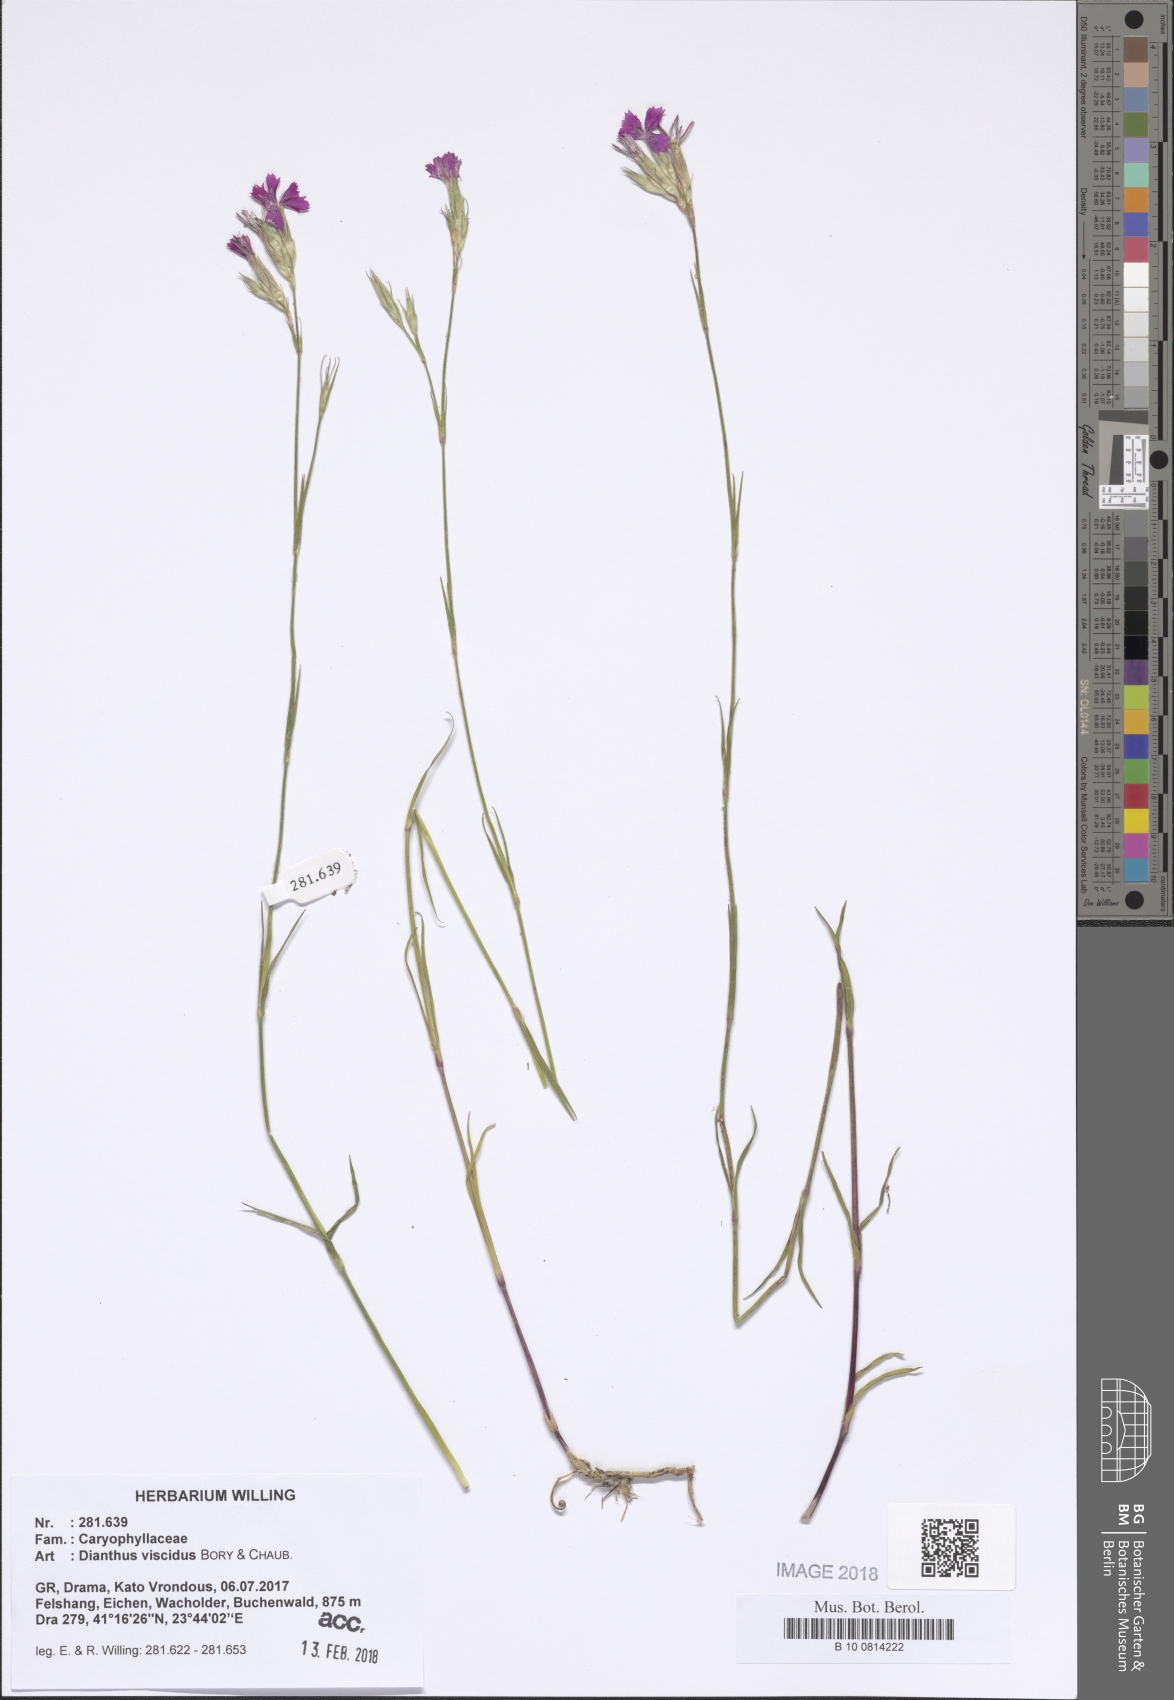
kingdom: Plantae
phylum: Tracheophyta
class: Magnoliopsida
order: Caryophyllales
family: Caryophyllaceae
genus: Dianthus
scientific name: Dianthus viscidus
